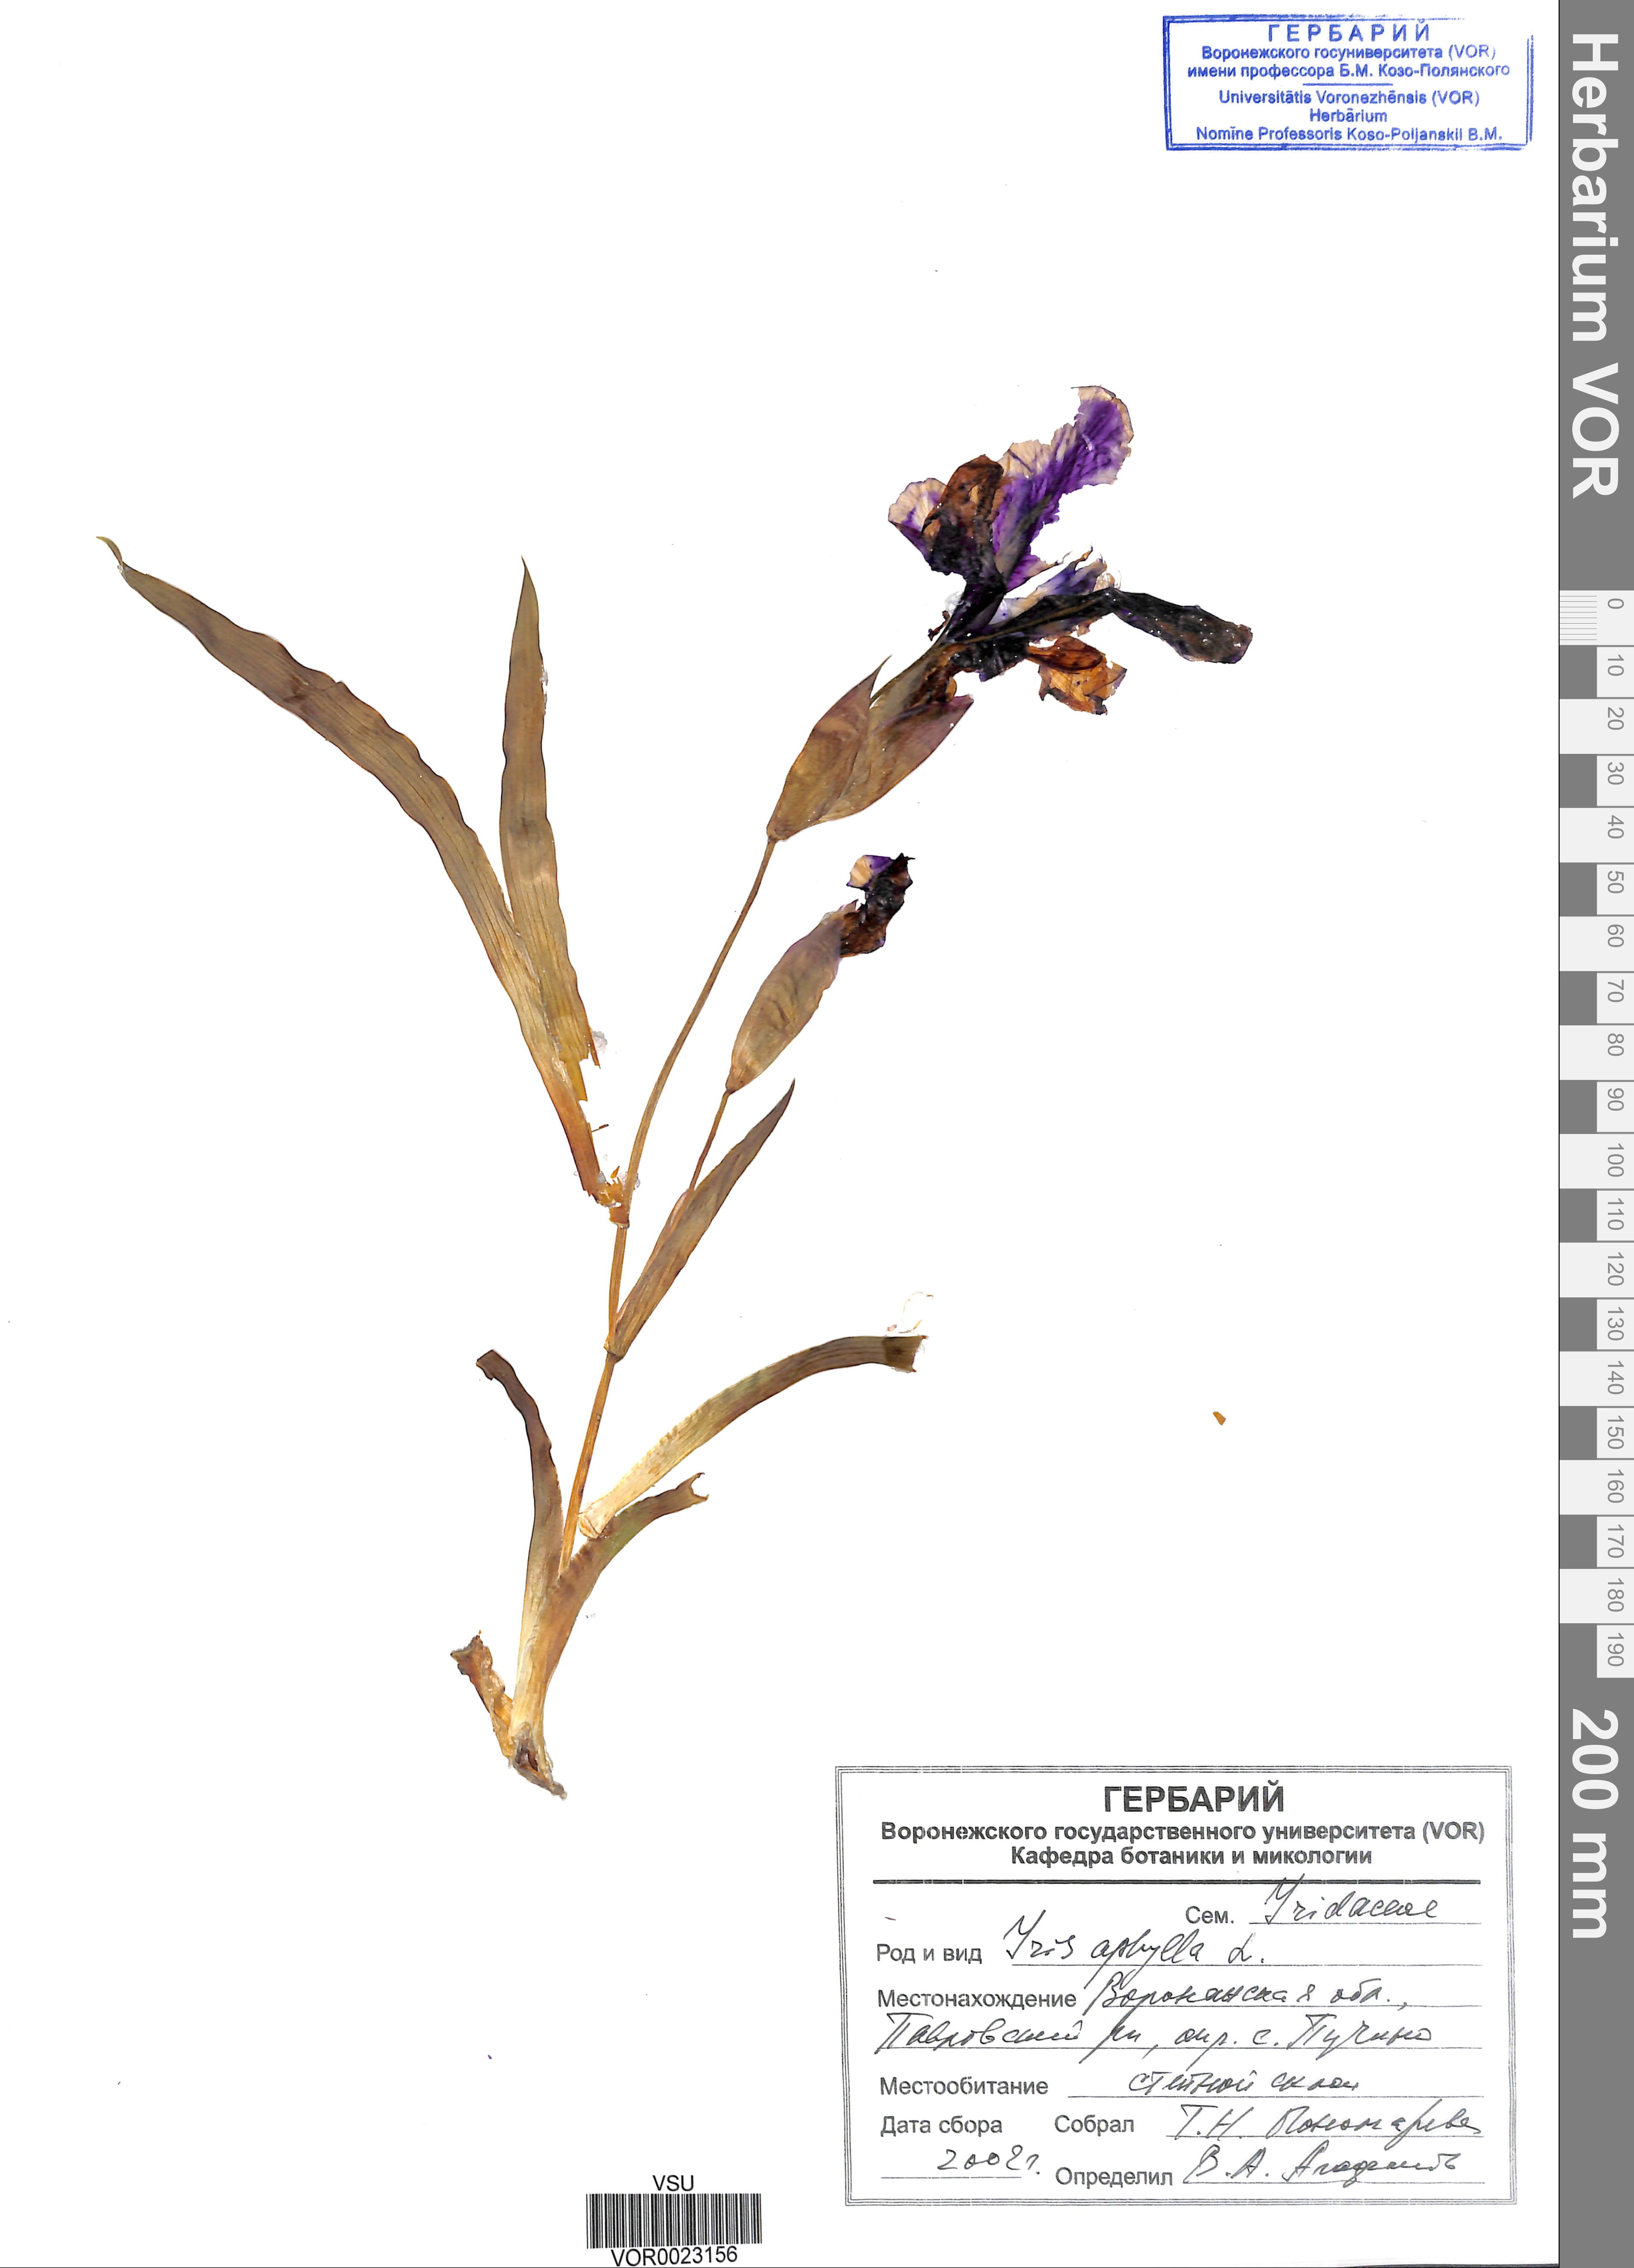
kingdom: Plantae
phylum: Tracheophyta
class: Liliopsida
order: Asparagales
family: Iridaceae
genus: Iris
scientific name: Iris aphylla
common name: Stool iris
